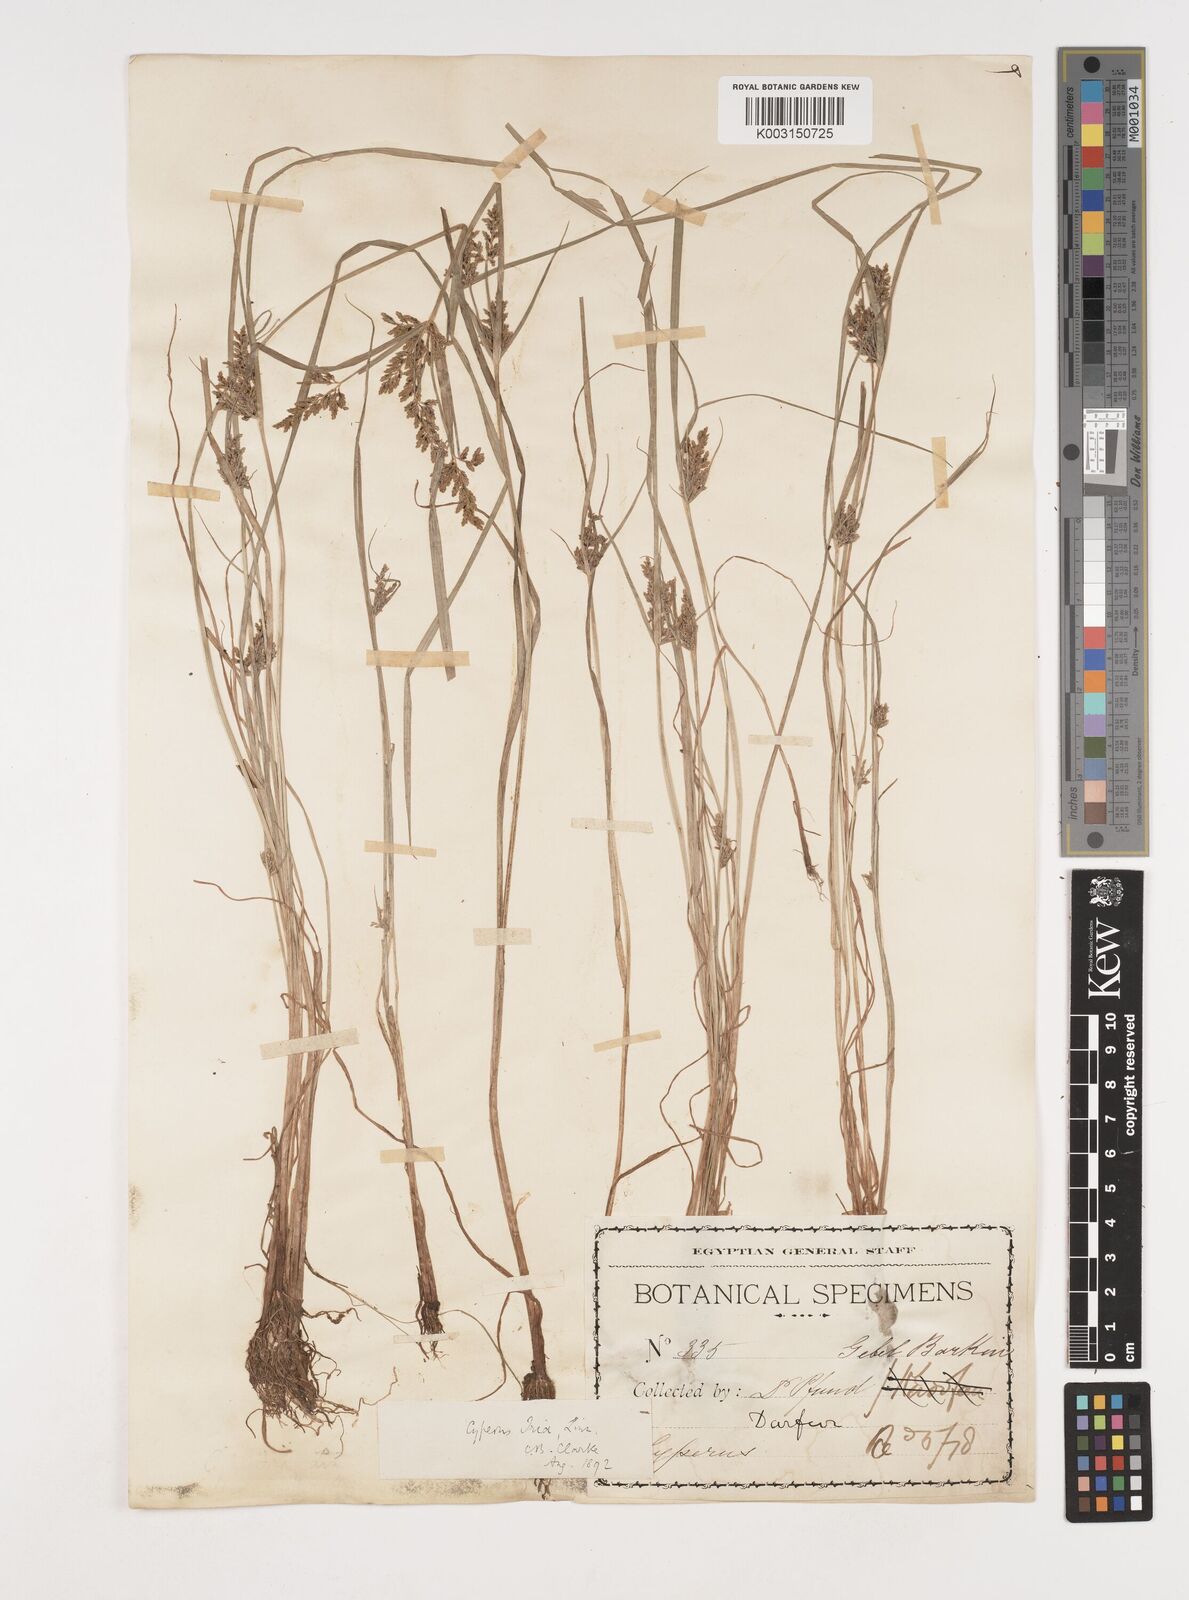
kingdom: Plantae
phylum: Tracheophyta
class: Liliopsida
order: Poales
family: Cyperaceae
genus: Cyperus
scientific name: Cyperus iria
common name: Ricefield flatsedge
